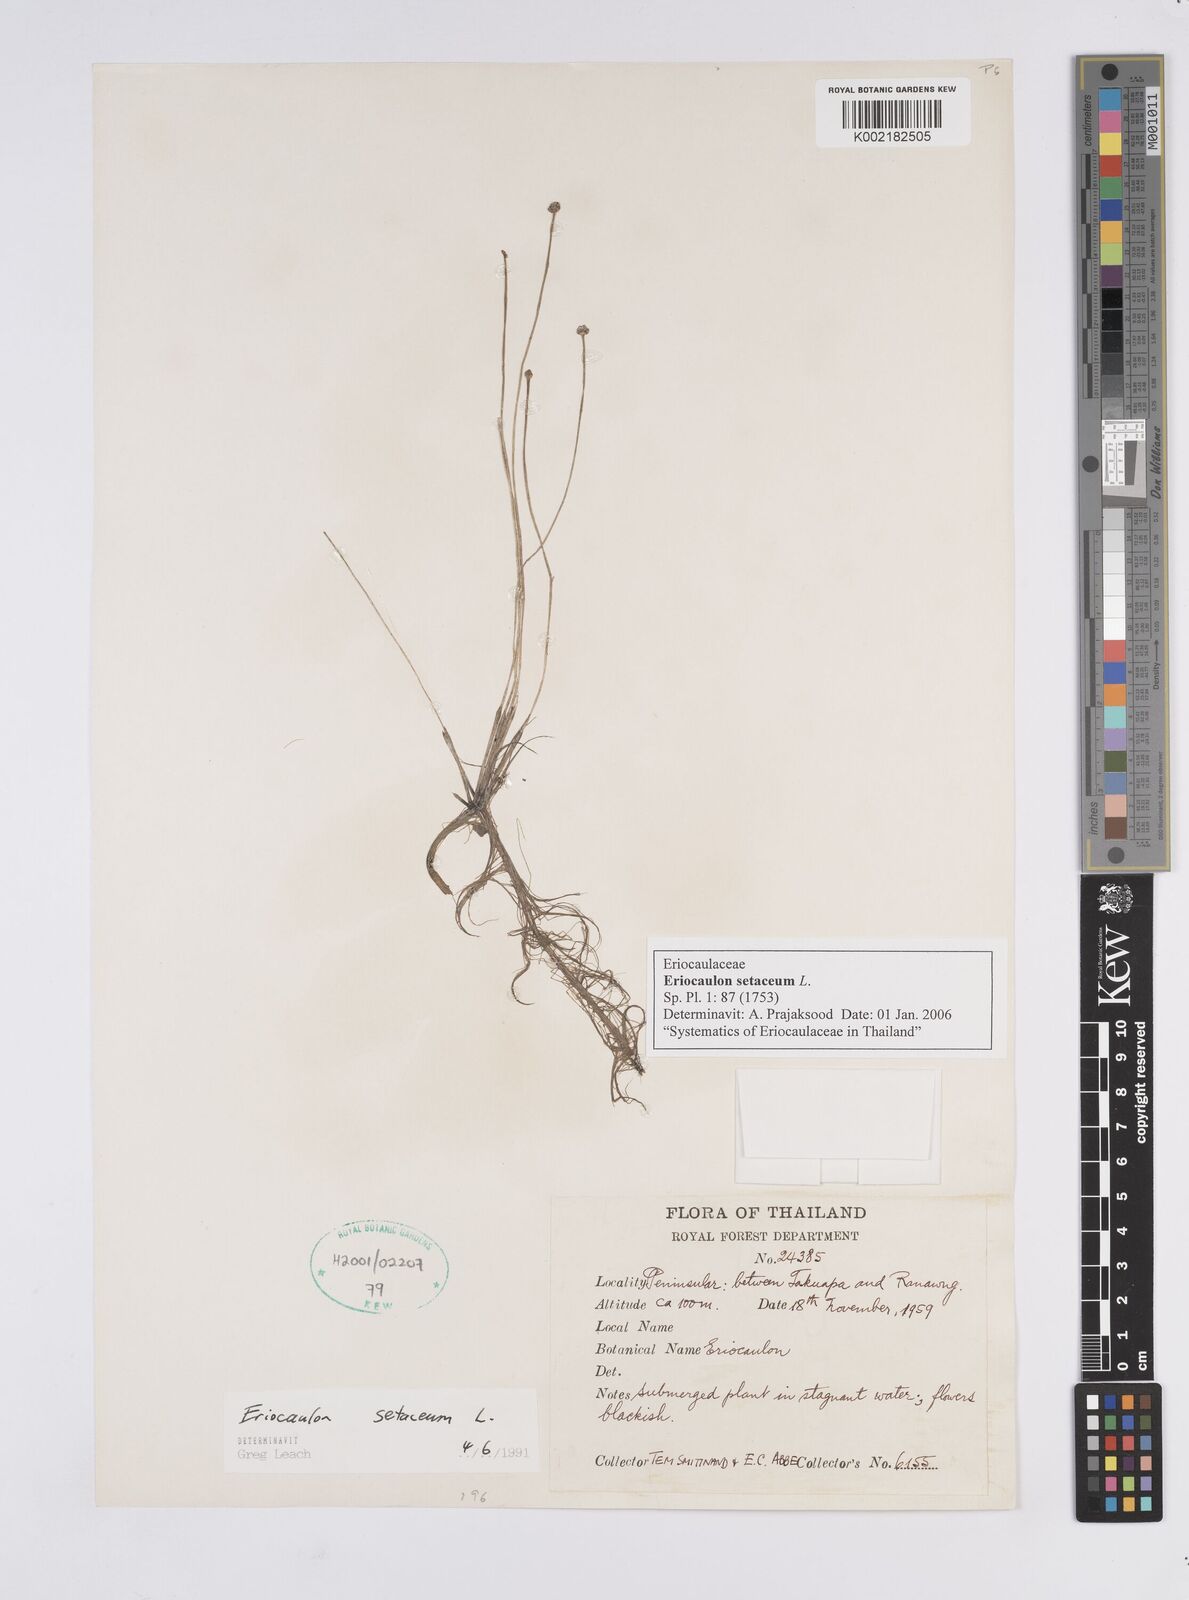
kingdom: Plantae
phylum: Tracheophyta
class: Liliopsida
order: Poales
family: Eriocaulaceae
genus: Eriocaulon
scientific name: Eriocaulon setaceum
